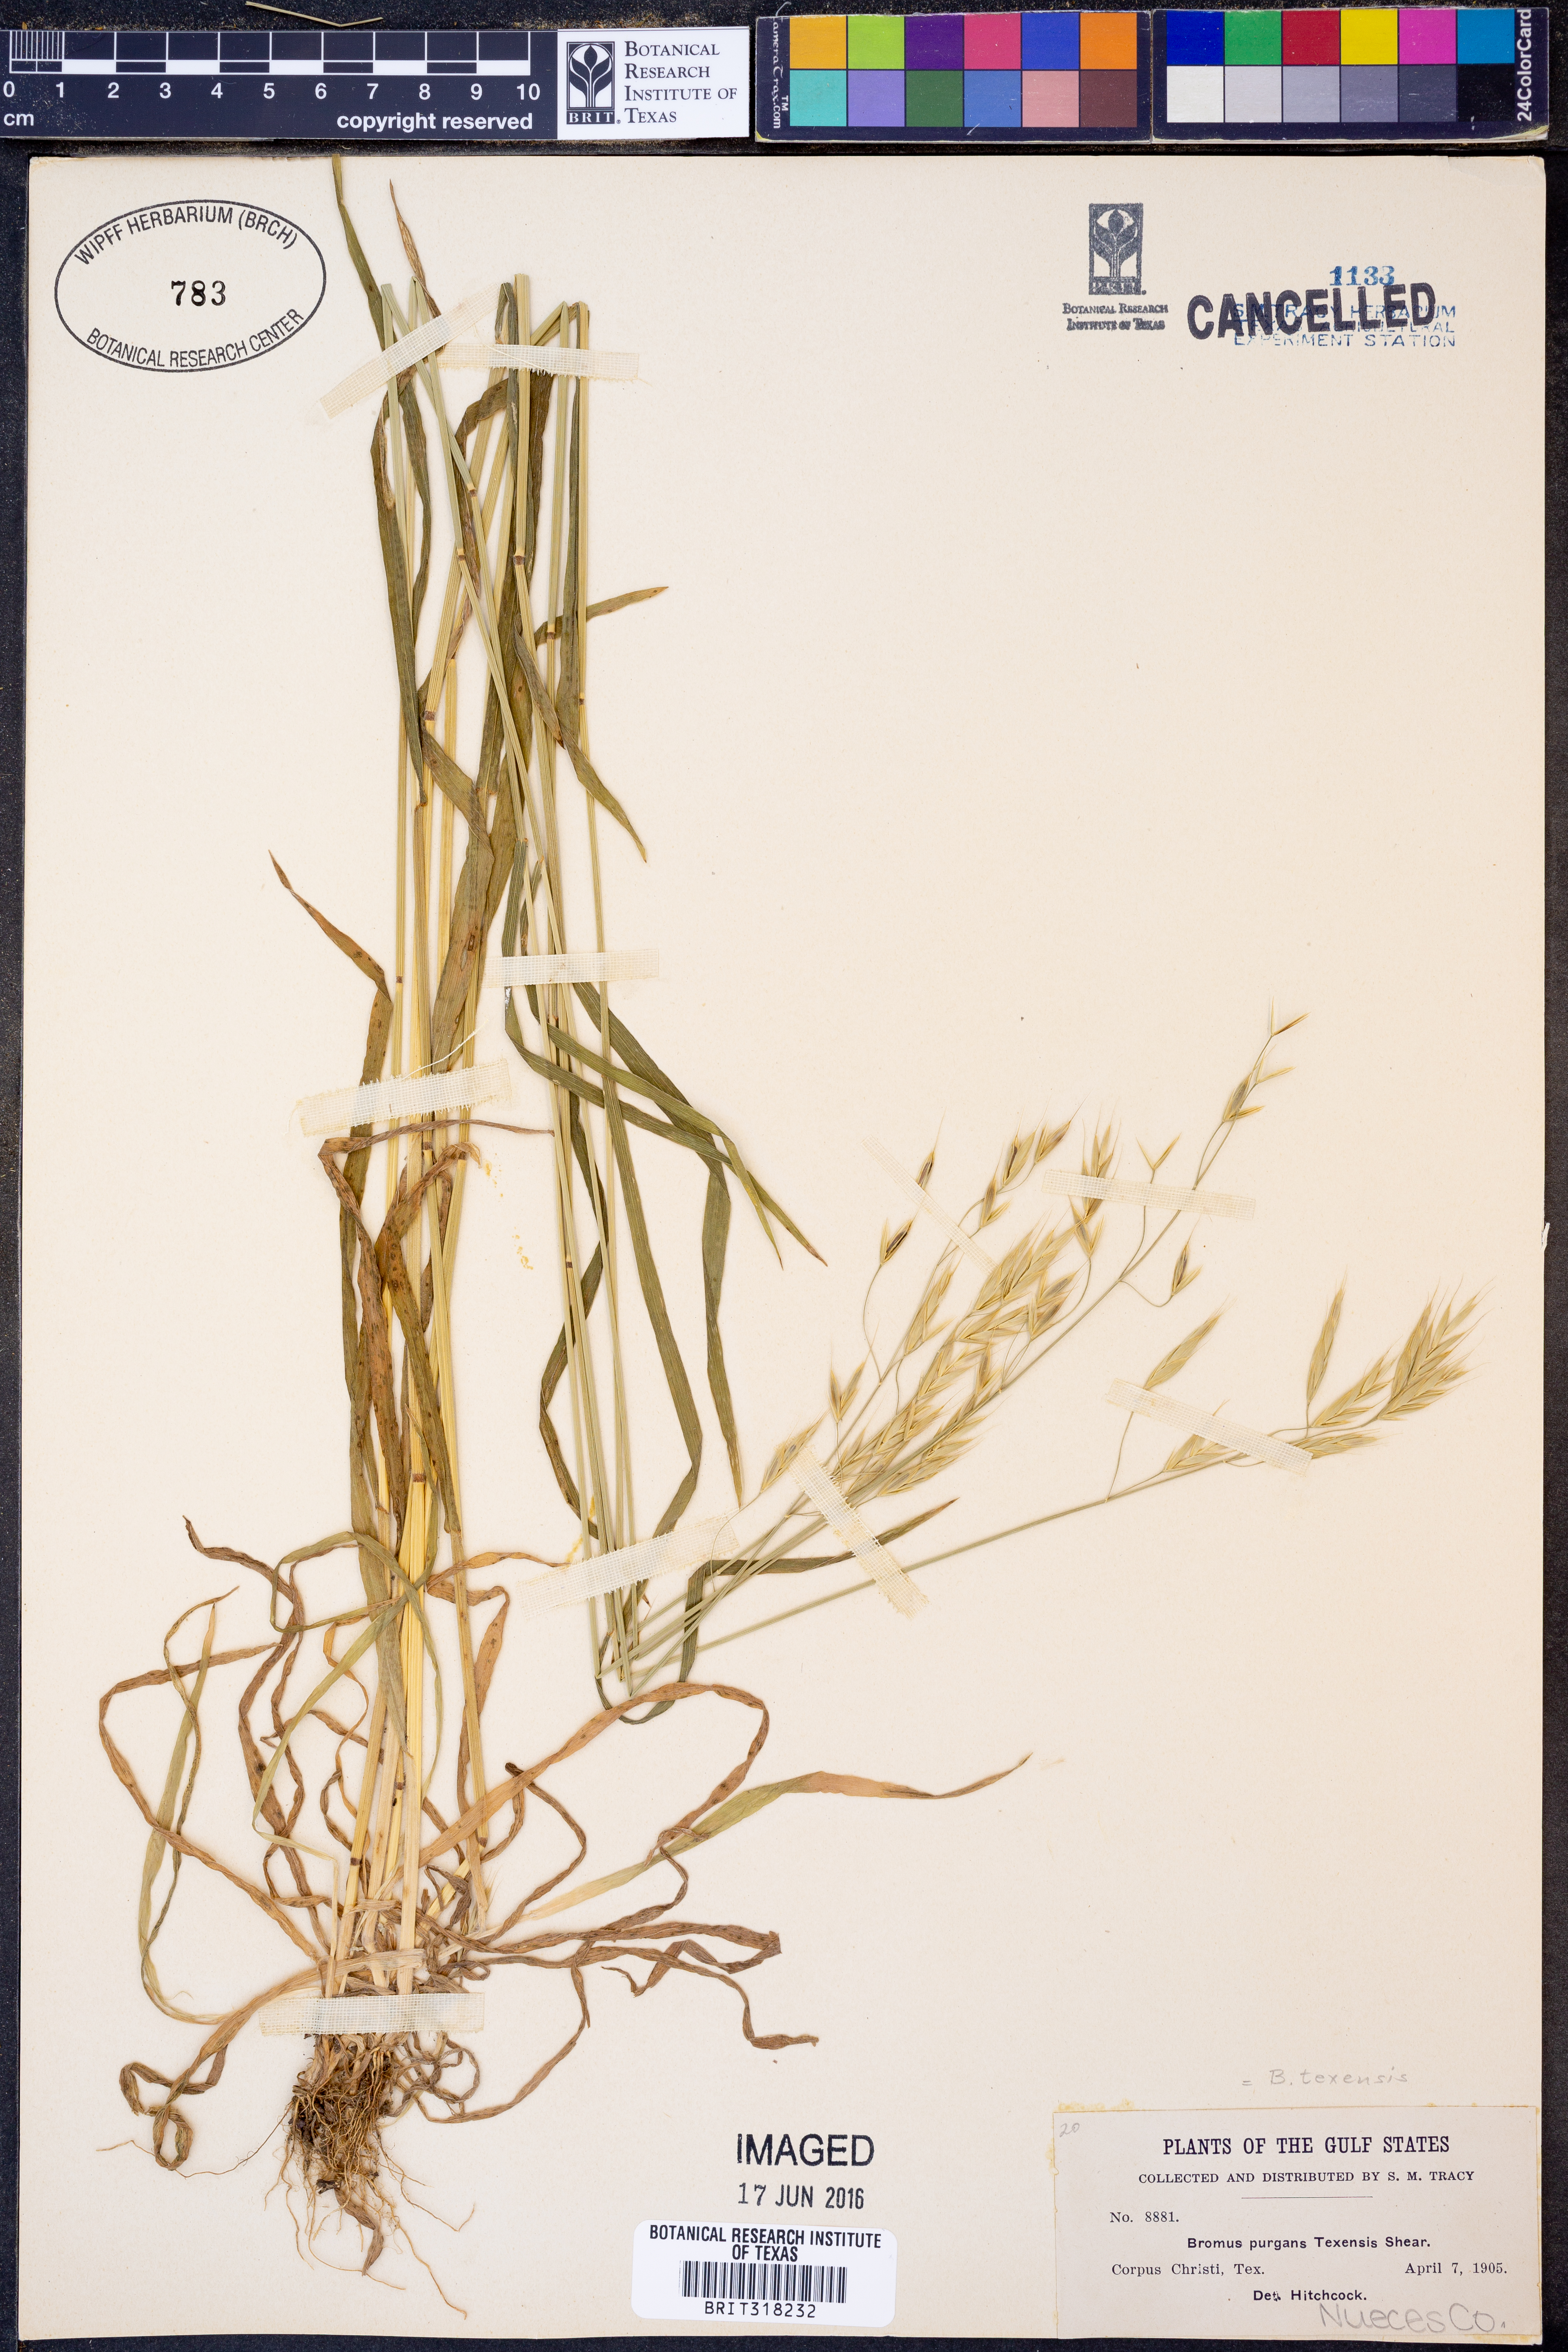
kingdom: Plantae
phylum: Tracheophyta
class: Liliopsida
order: Poales
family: Poaceae
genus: Bromus
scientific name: Bromus texensis
